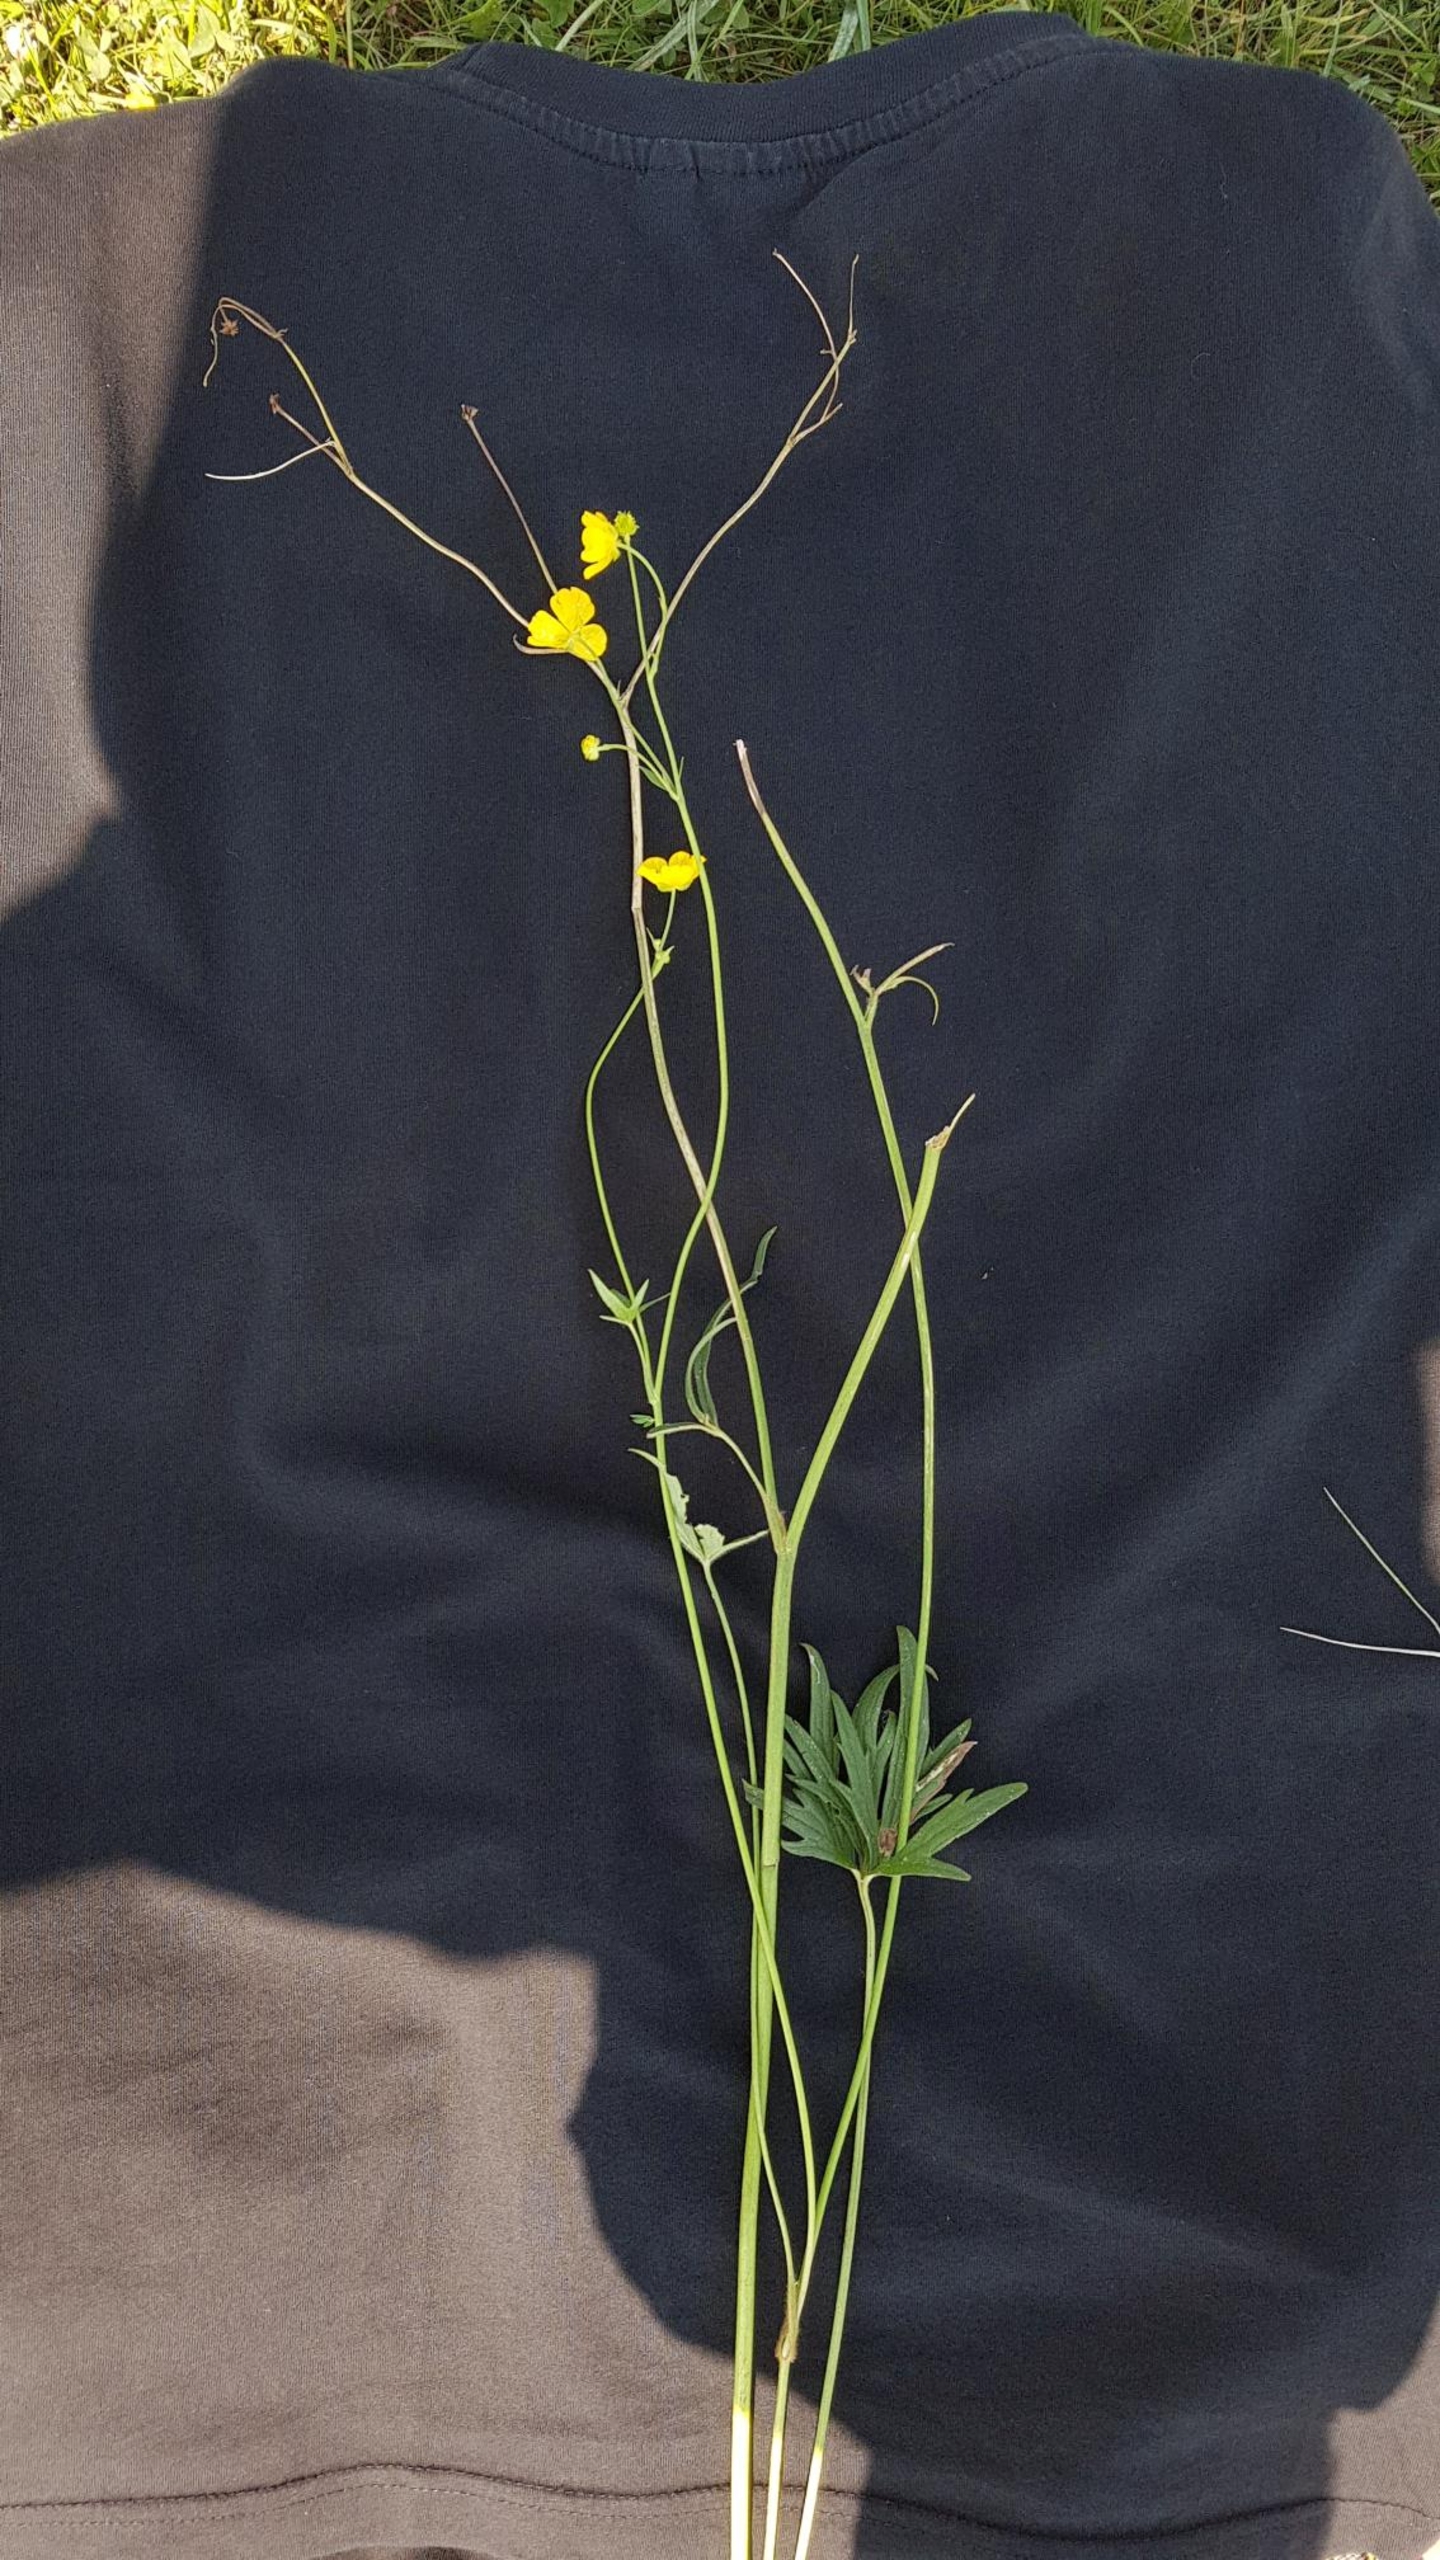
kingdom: Plantae
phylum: Tracheophyta
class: Magnoliopsida
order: Ranunculales
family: Ranunculaceae
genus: Ranunculus
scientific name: Ranunculus acris
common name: Bidende ranunkel
